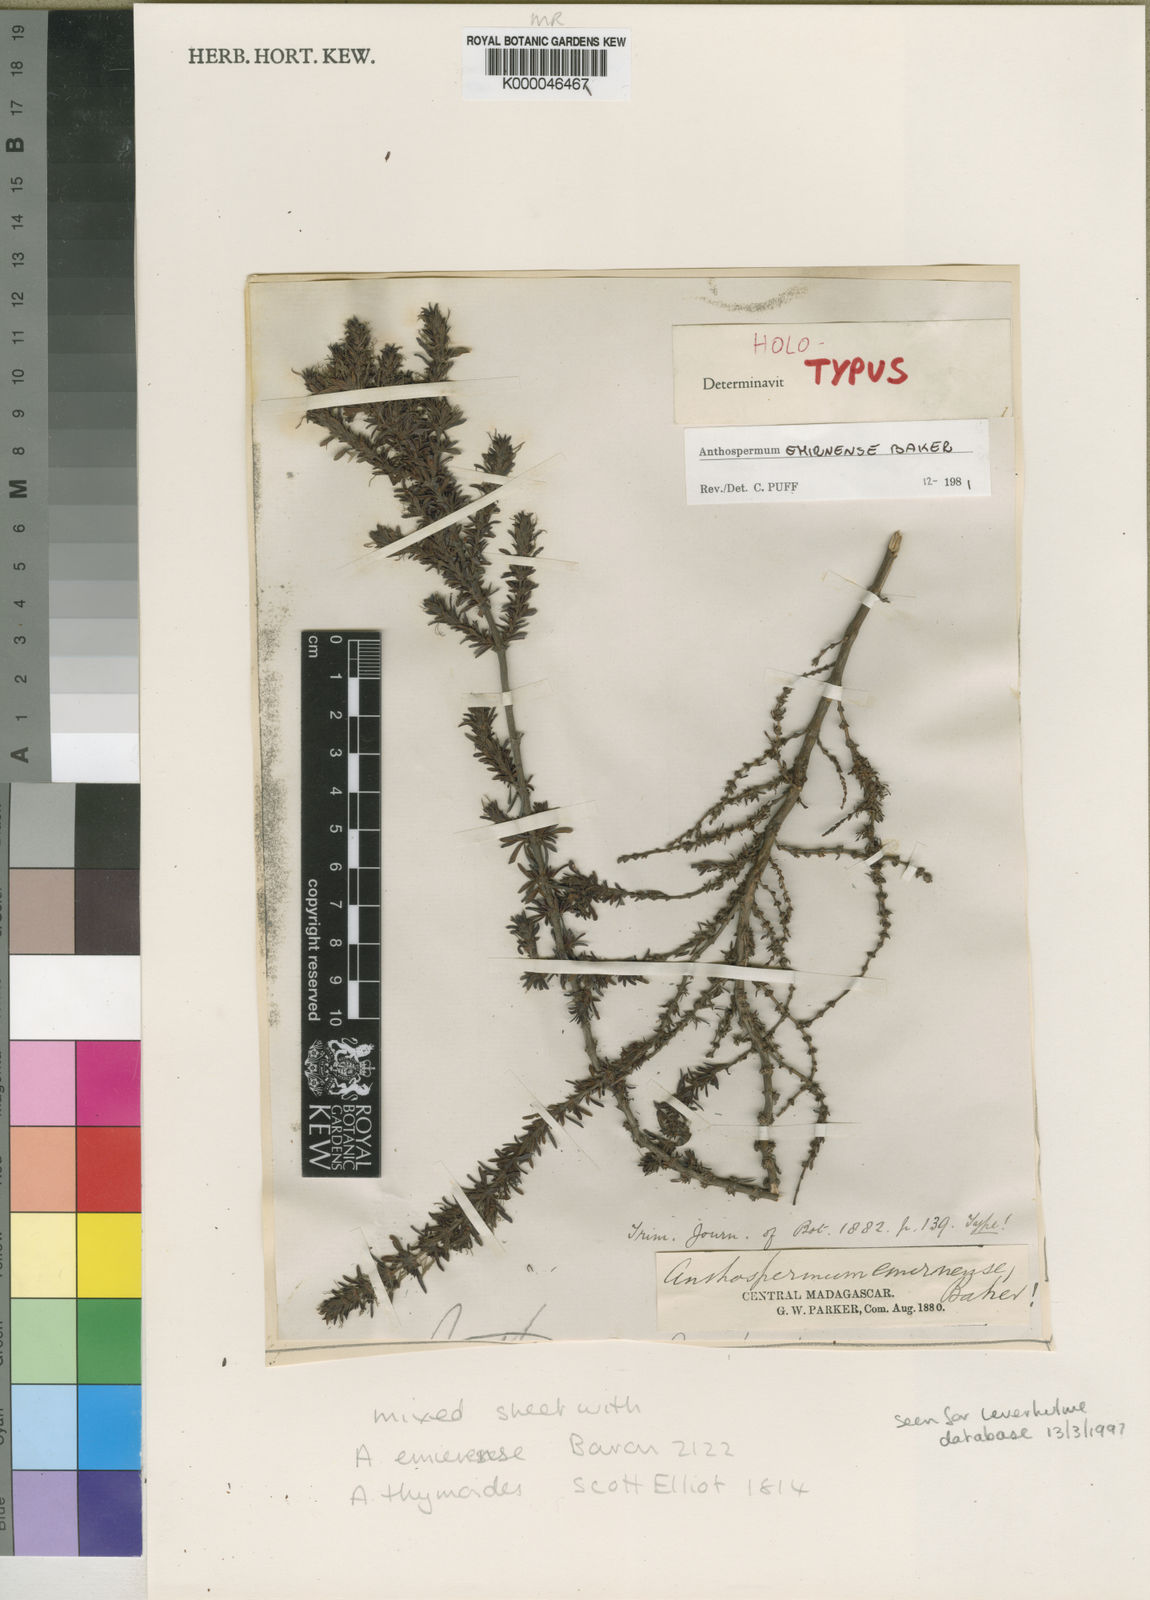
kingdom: Plantae
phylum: Tracheophyta
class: Magnoliopsida
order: Gentianales
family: Rubiaceae
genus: Anthospermum
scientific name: Anthospermum emirnense
